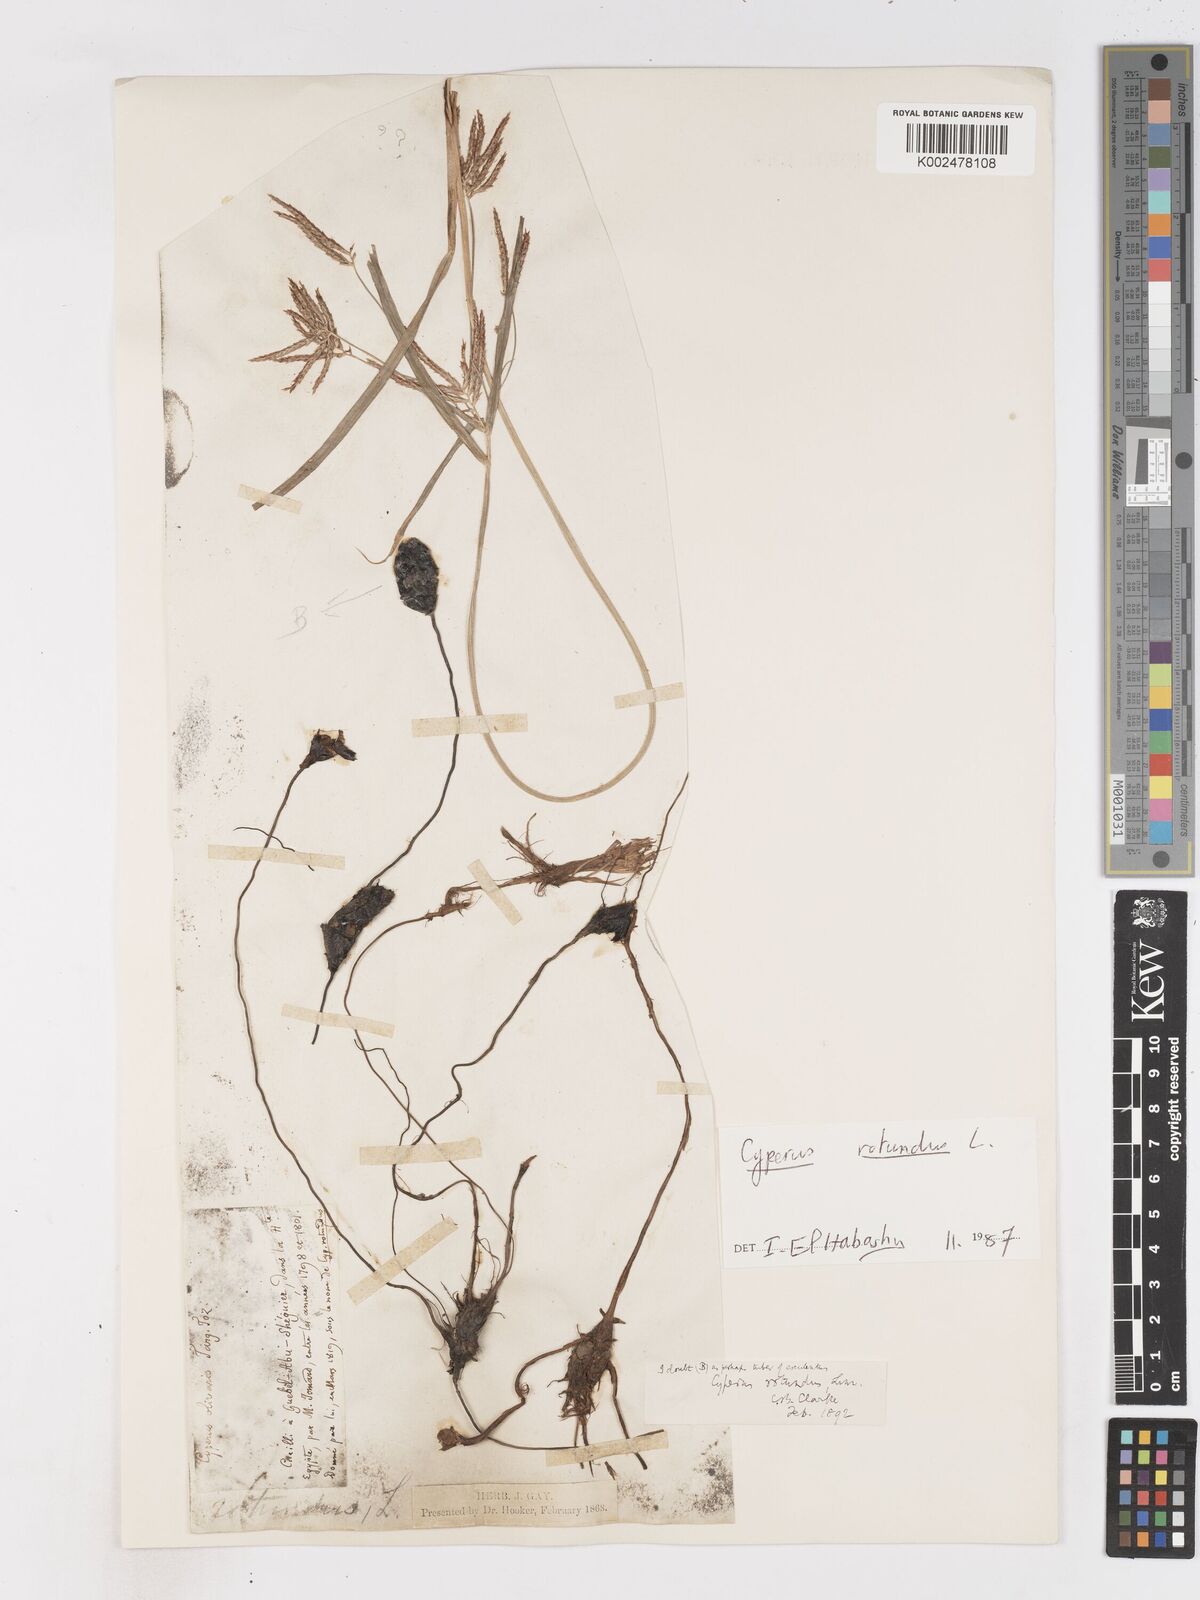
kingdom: Plantae
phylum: Tracheophyta
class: Liliopsida
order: Poales
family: Cyperaceae
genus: Cyperus
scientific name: Cyperus rotundus
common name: Nutgrass
